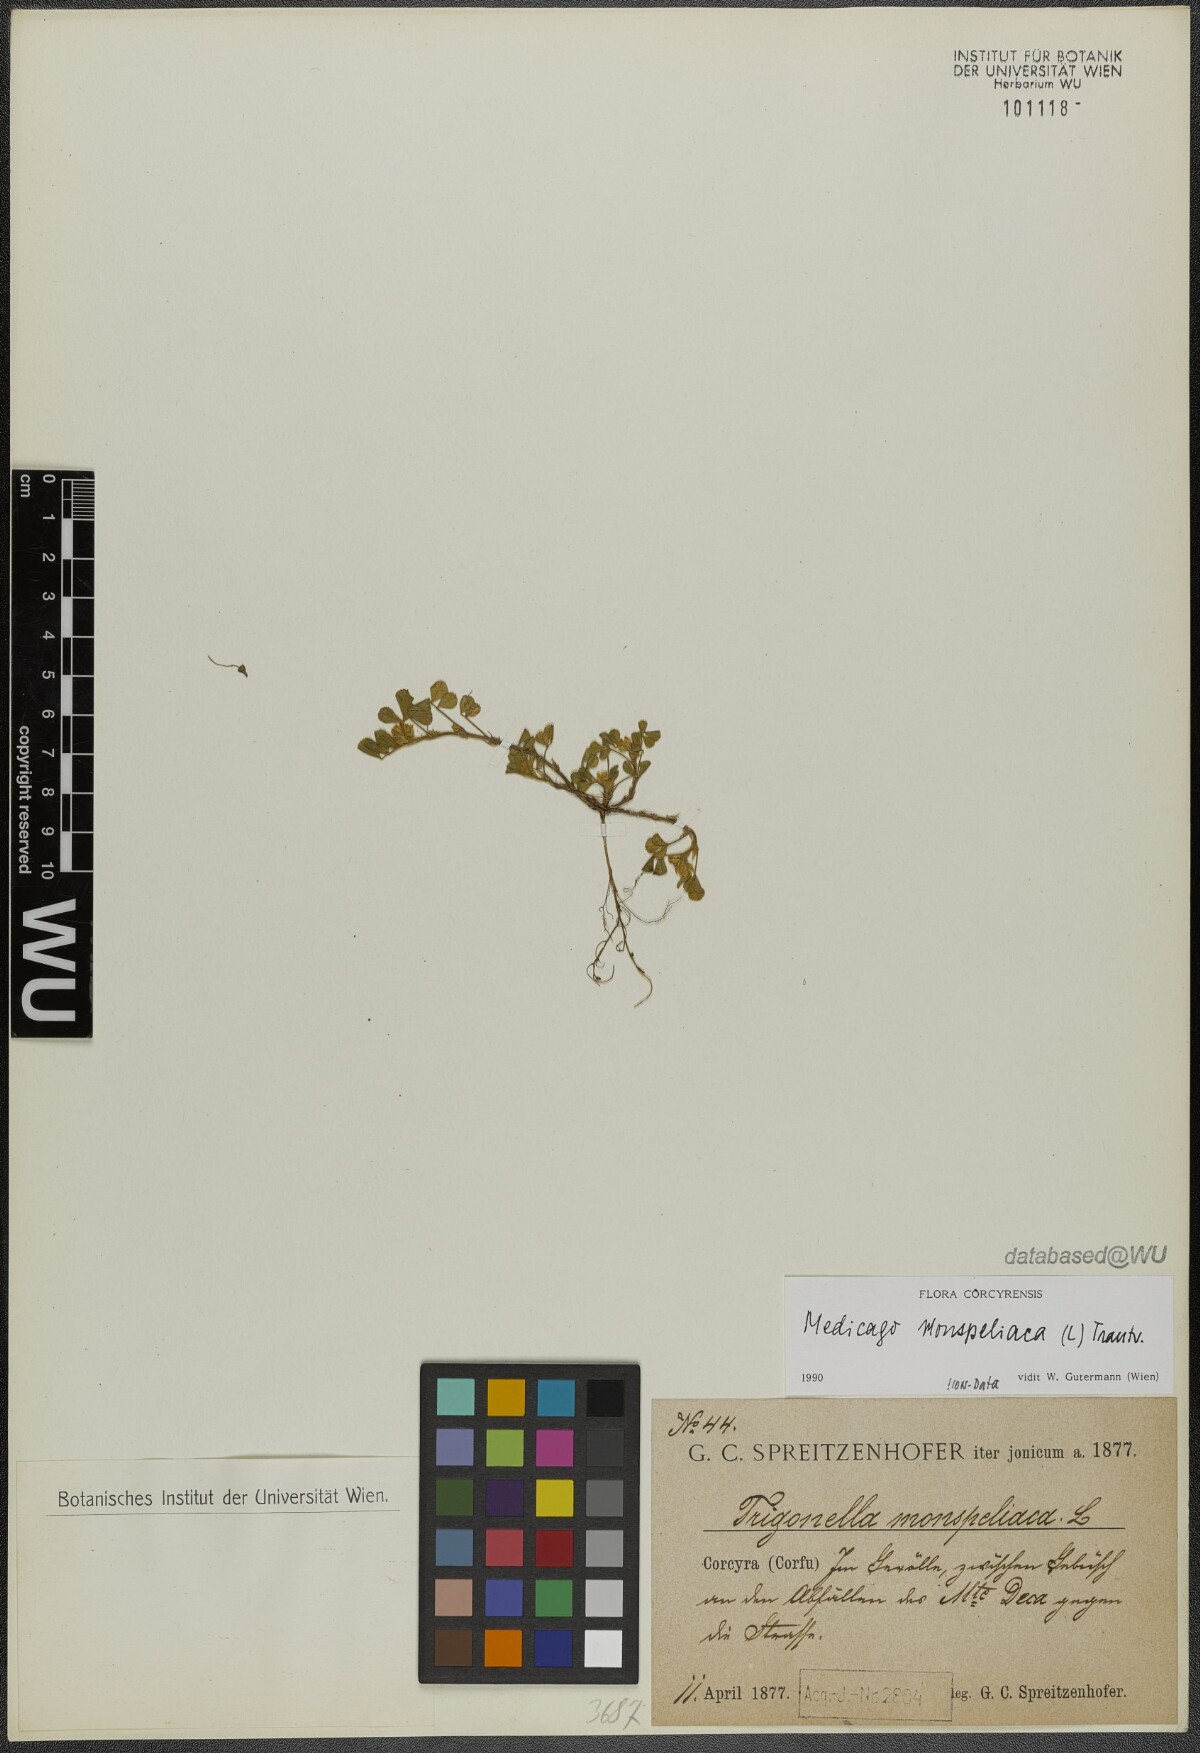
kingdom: Plantae
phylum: Tracheophyta
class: Magnoliopsida
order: Fabales
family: Fabaceae
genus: Medicago
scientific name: Medicago monspeliaca
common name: Hairy medick
